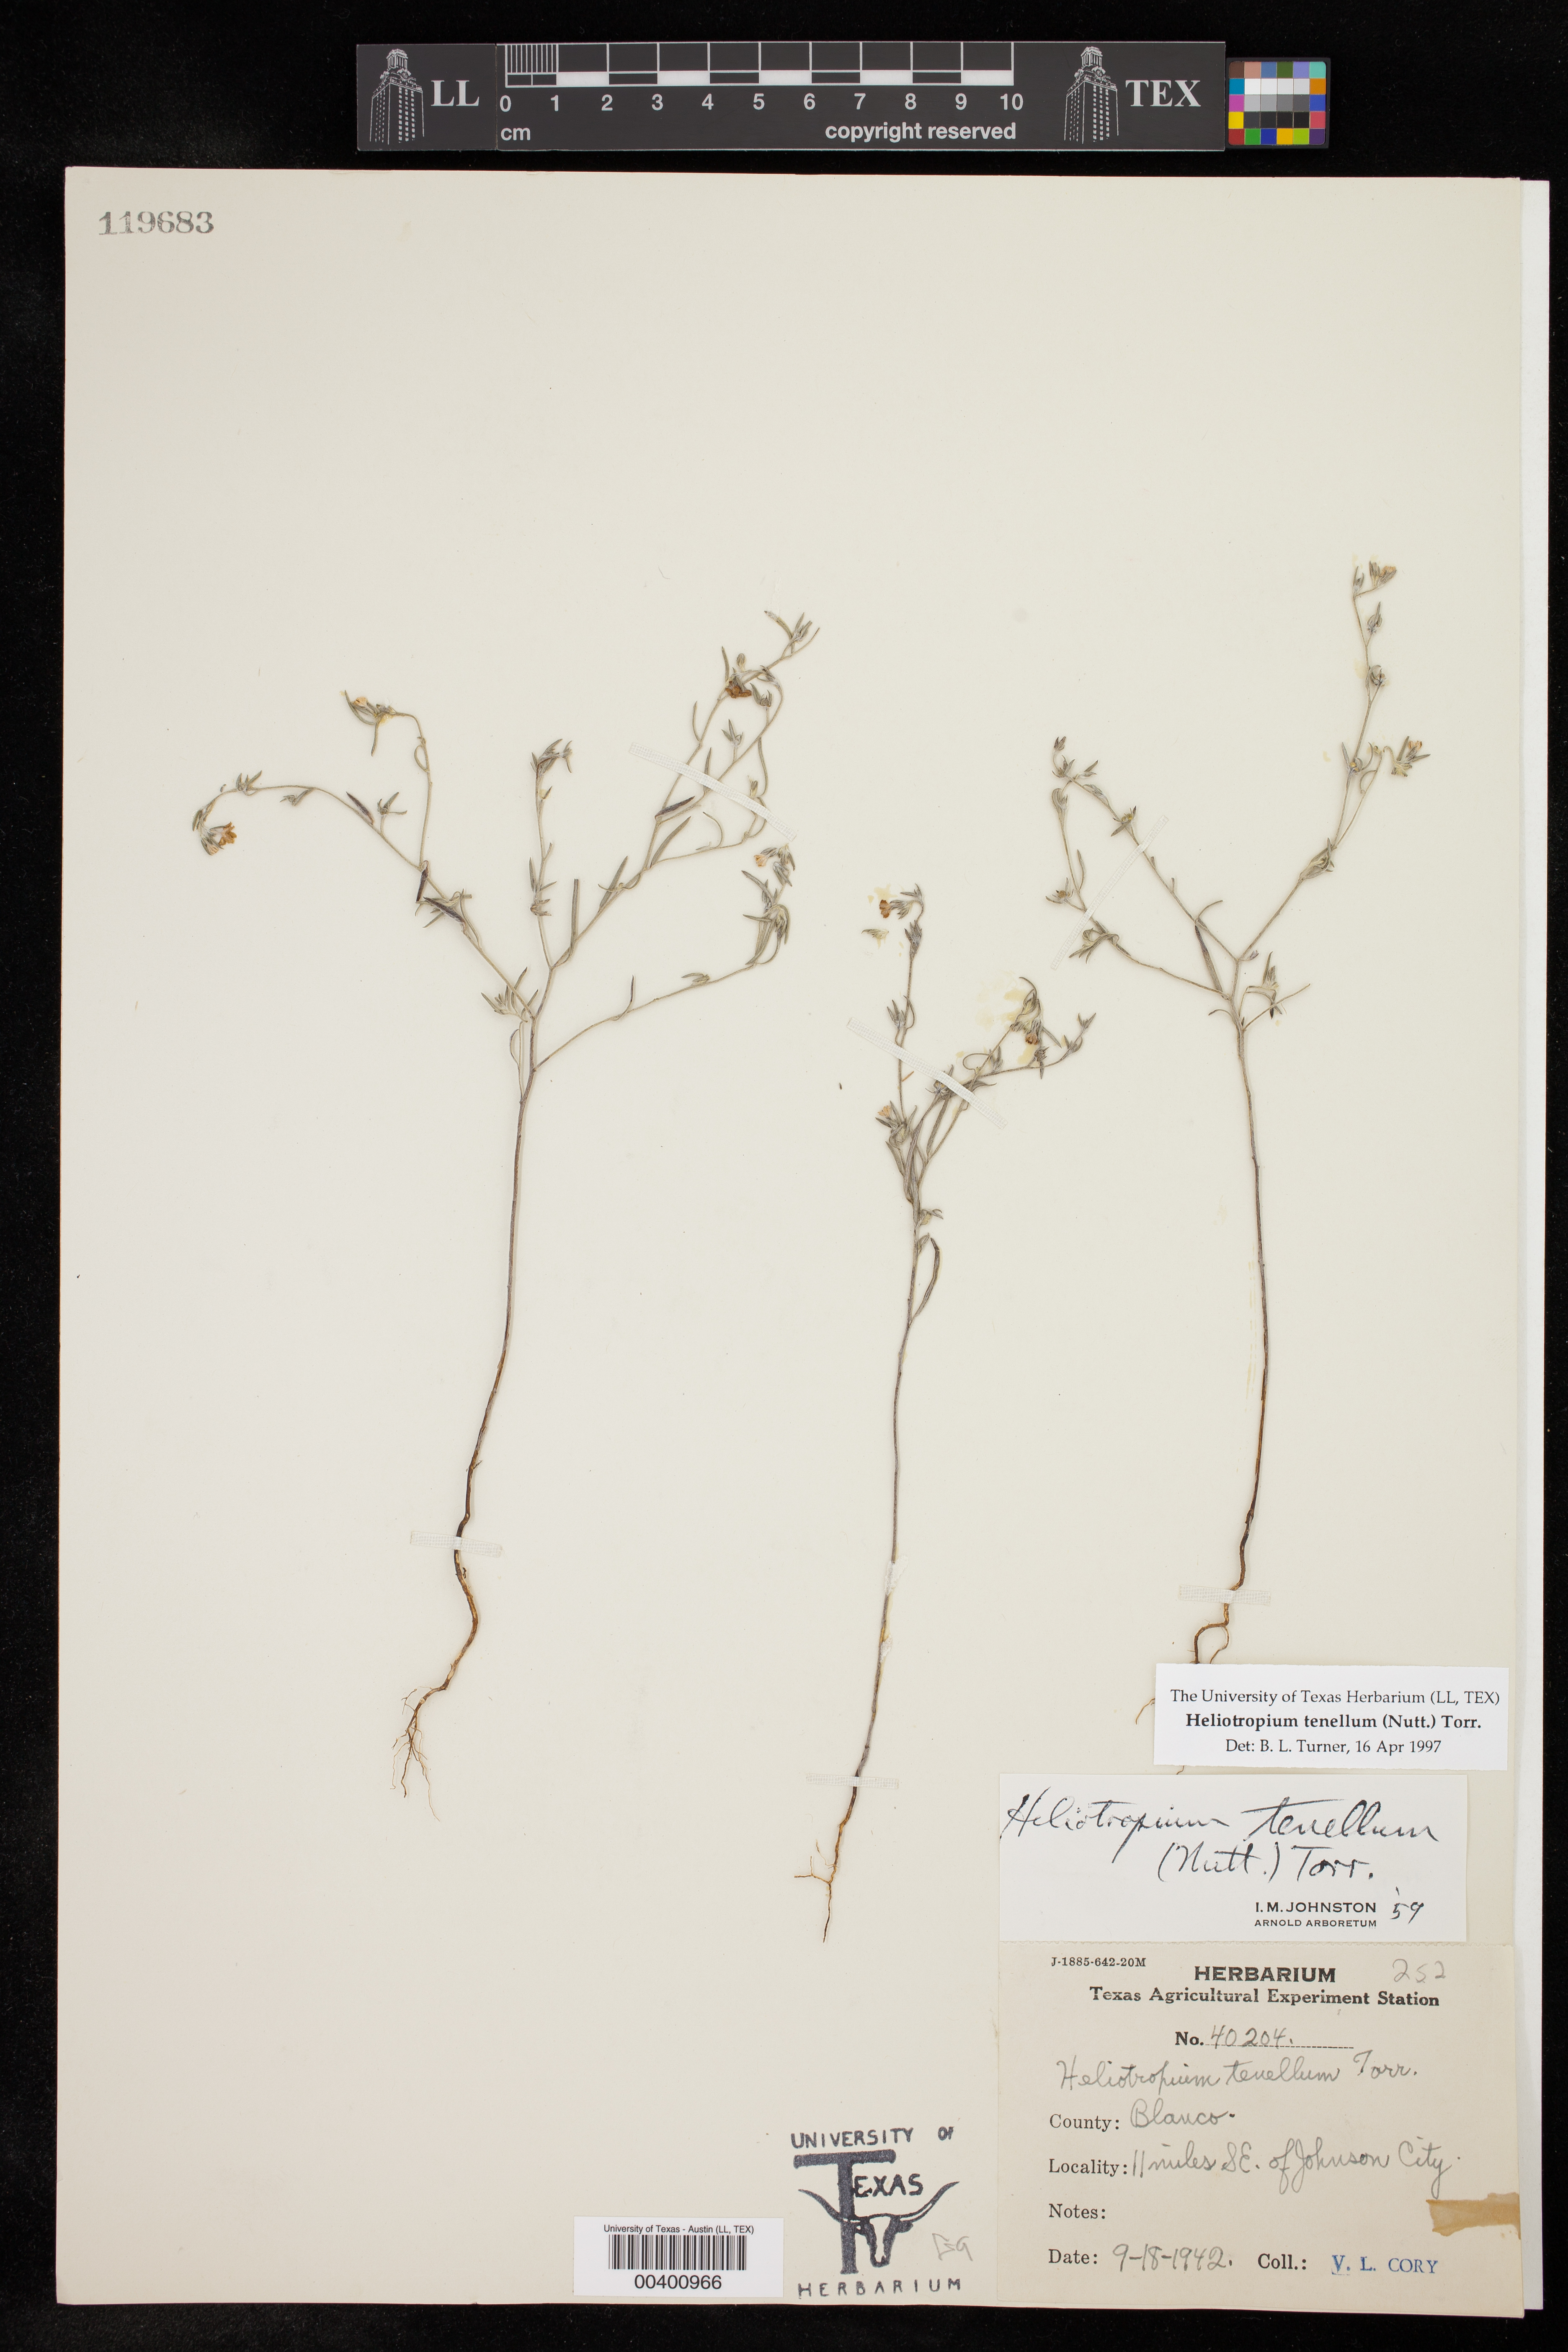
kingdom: Plantae
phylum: Tracheophyta
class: Magnoliopsida
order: Boraginales
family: Heliotropiaceae
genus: Euploca
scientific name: Euploca tenella
